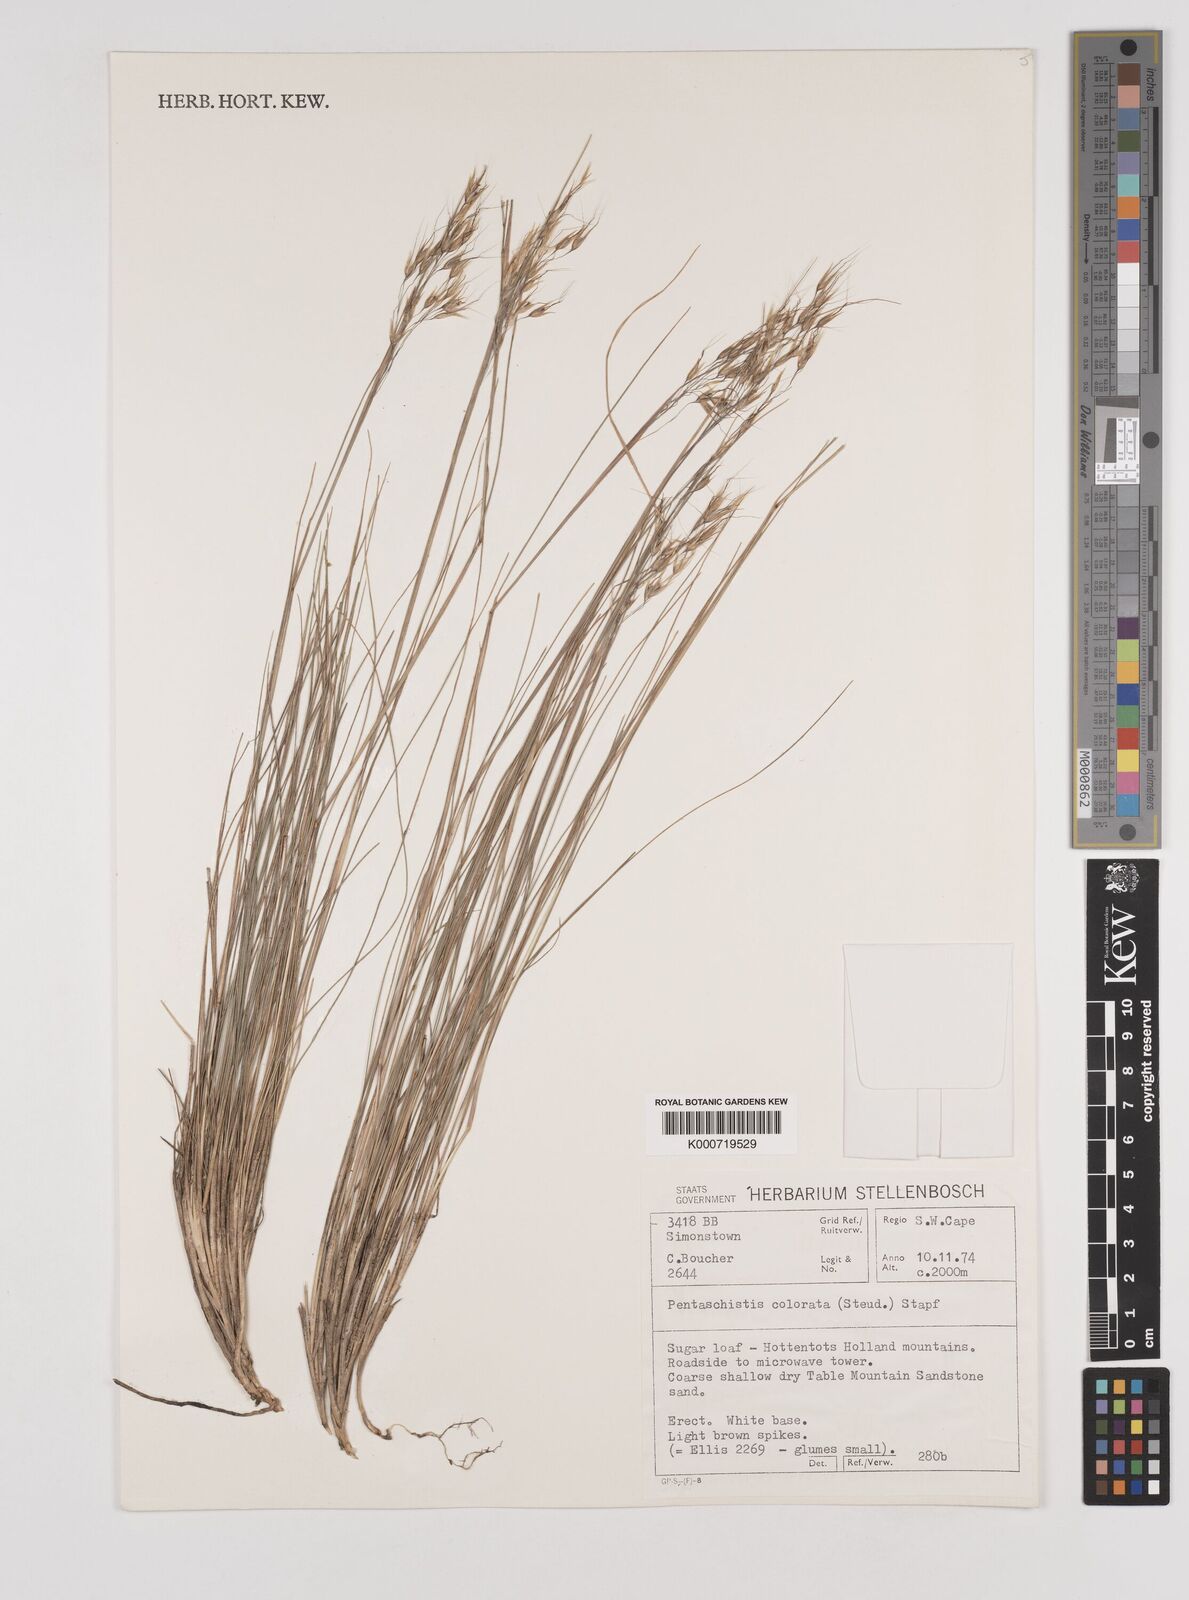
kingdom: Plantae
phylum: Tracheophyta
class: Liliopsida
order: Poales
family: Poaceae
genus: Pentameris
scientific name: Pentameris colorata
